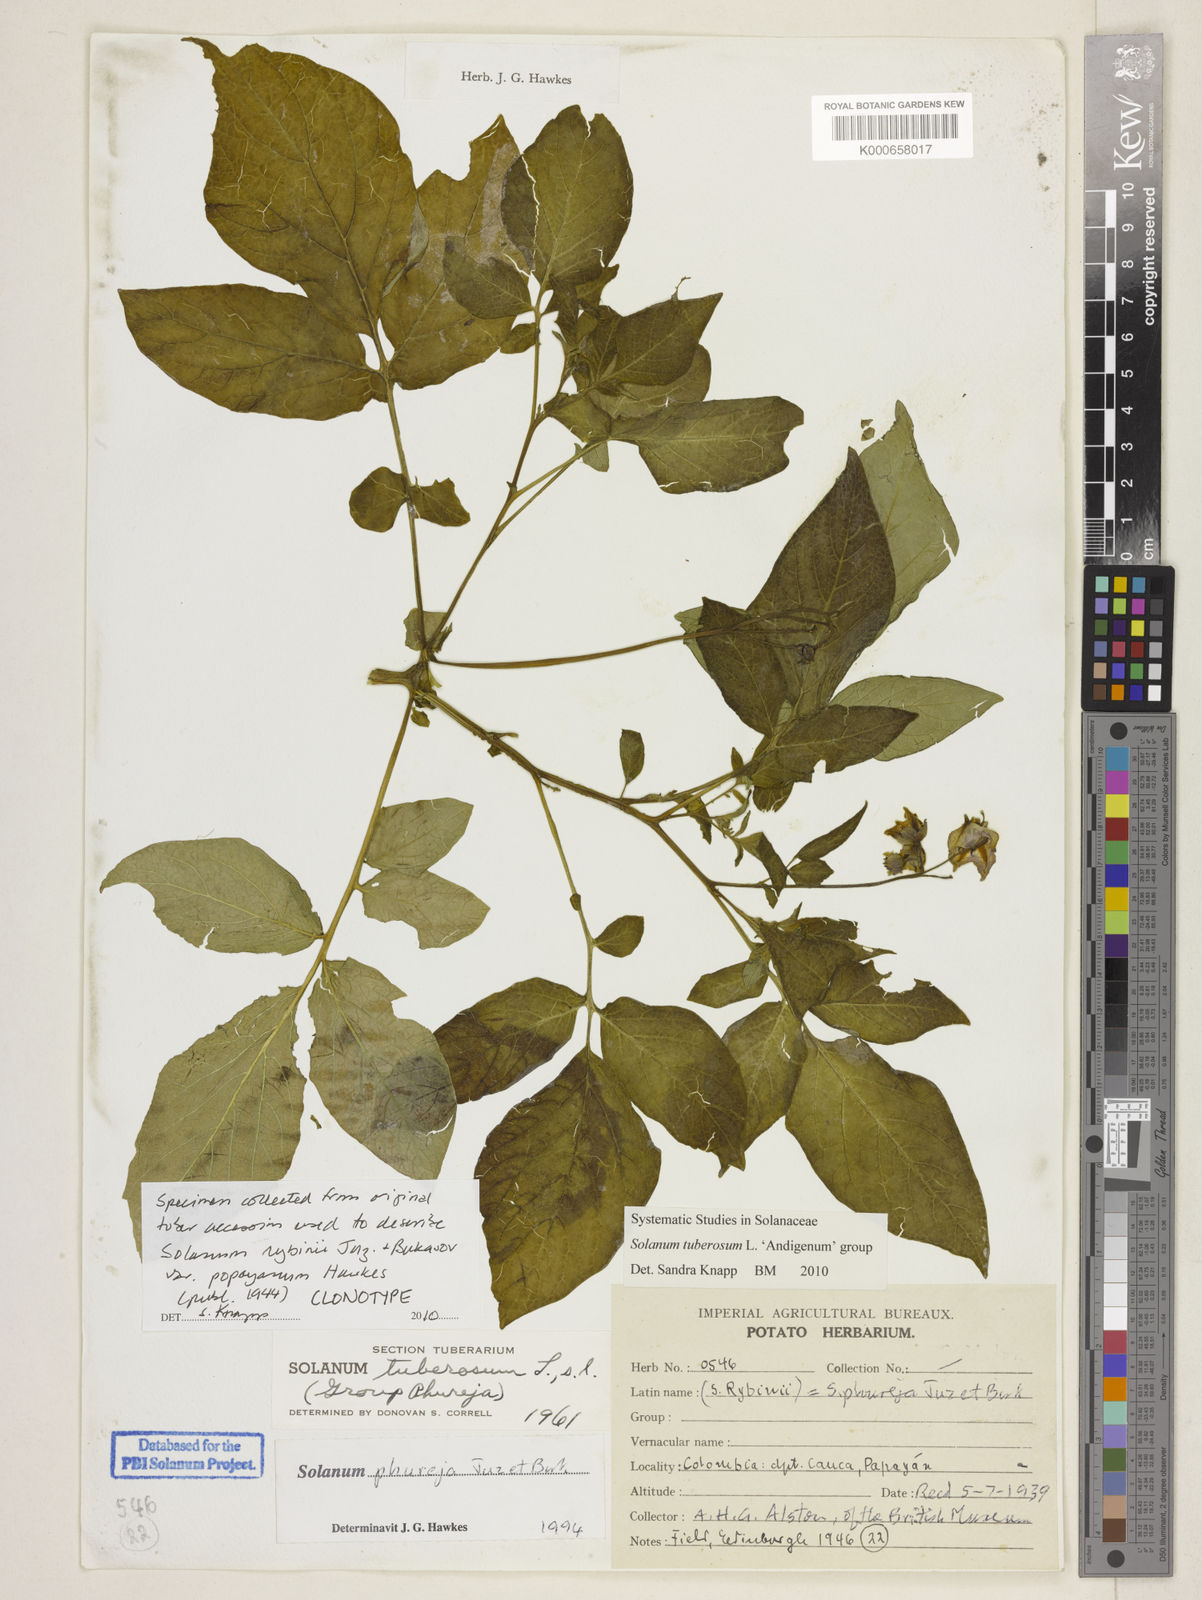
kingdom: Plantae
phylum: Tracheophyta
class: Magnoliopsida
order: Solanales
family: Solanaceae
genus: Solanum
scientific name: Solanum tuberosum
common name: Potato
